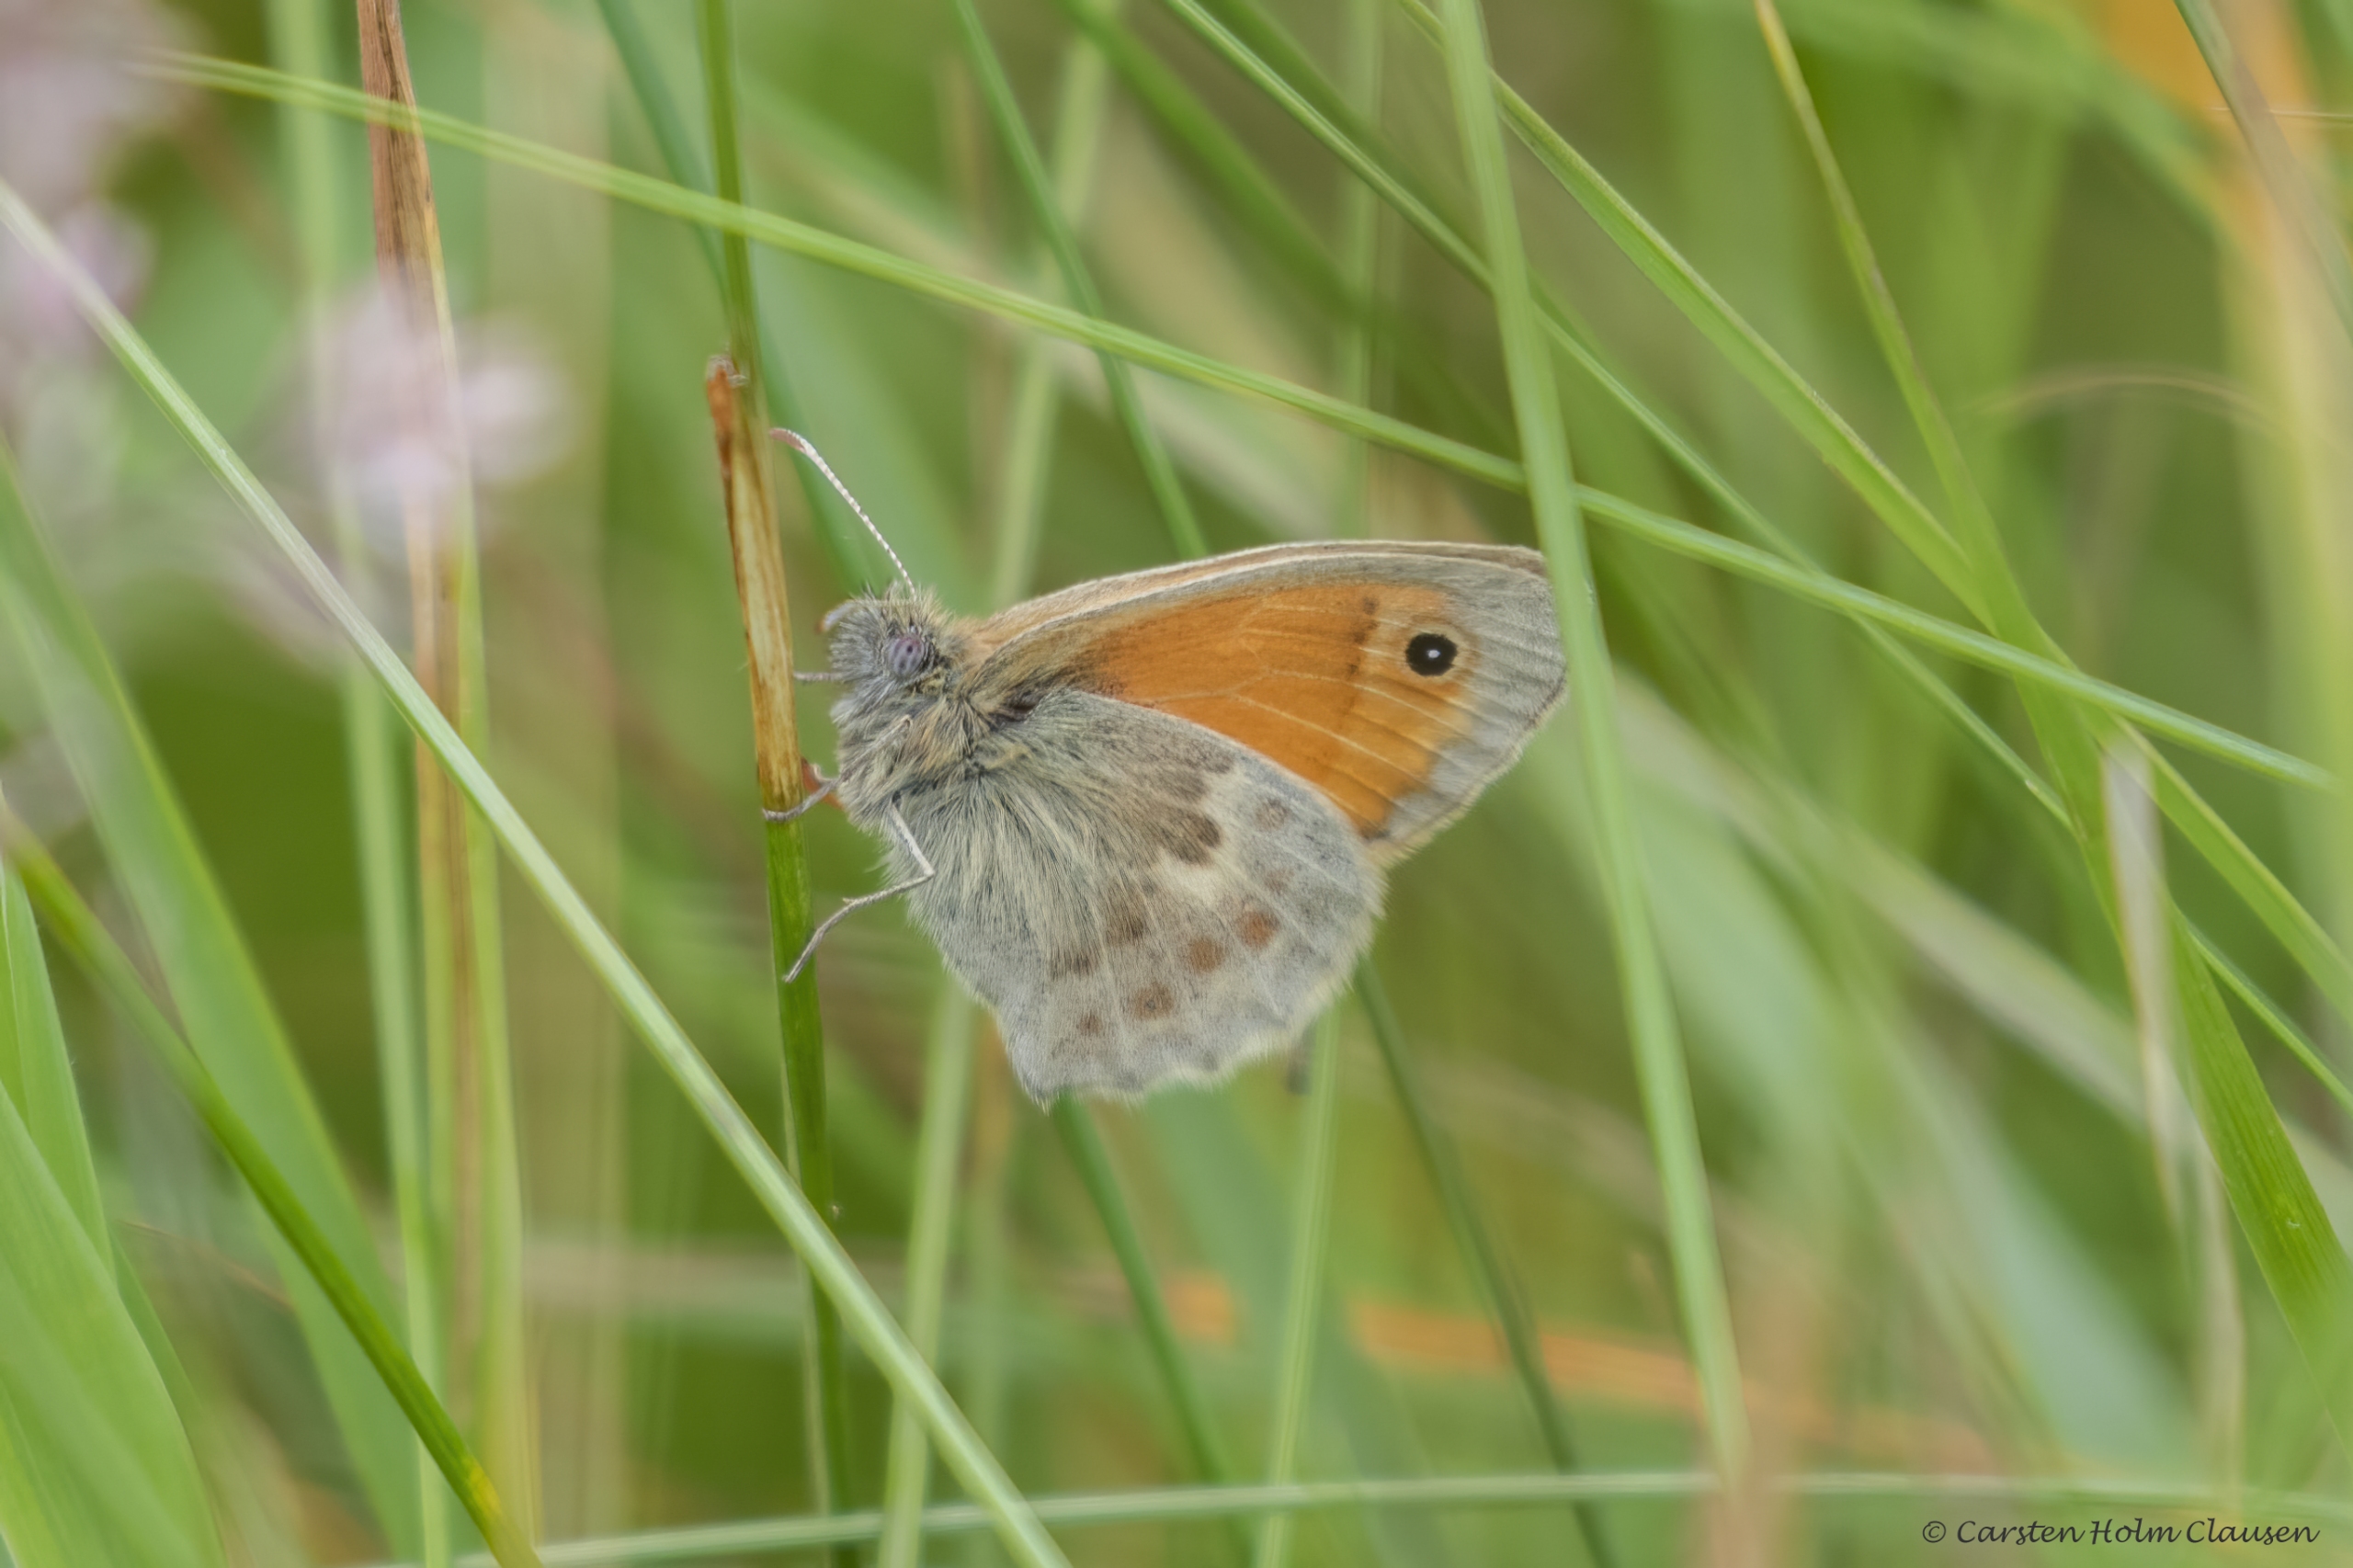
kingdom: Animalia
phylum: Arthropoda
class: Insecta
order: Lepidoptera
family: Nymphalidae
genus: Coenonympha
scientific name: Coenonympha pamphilus
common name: Okkergul randøje
